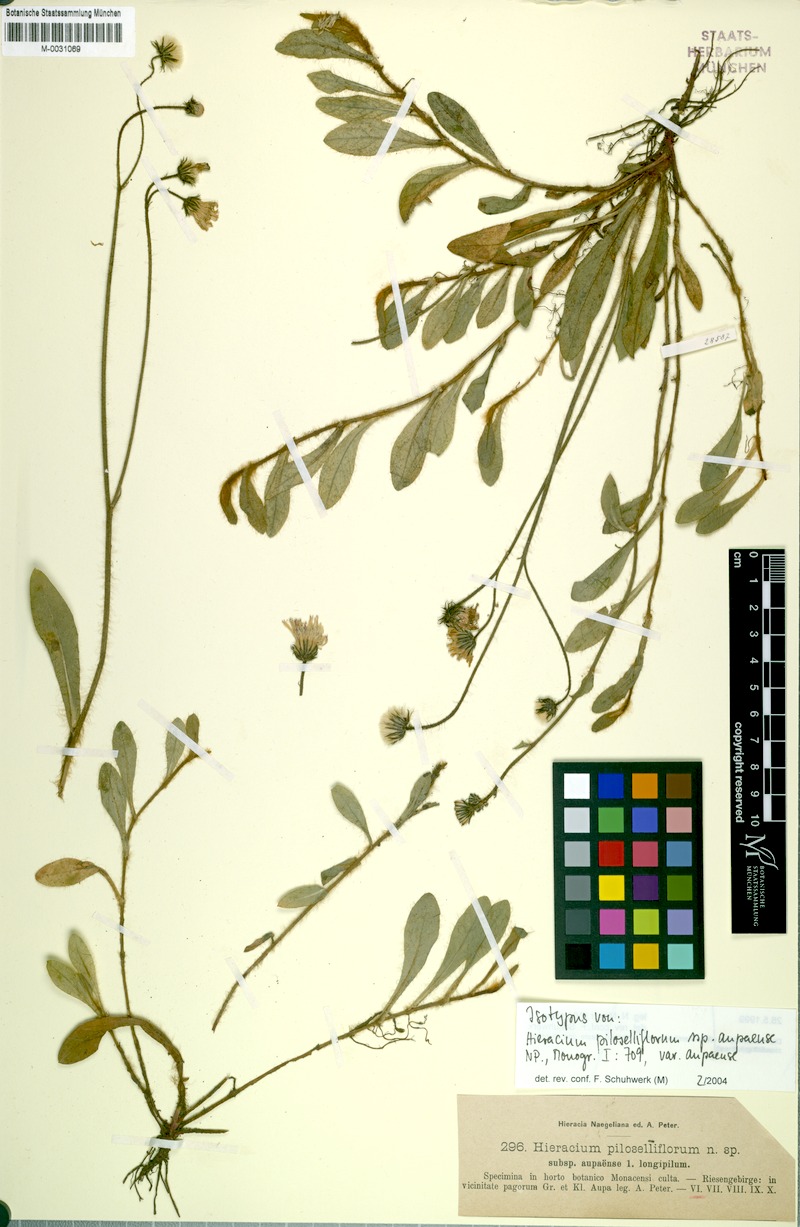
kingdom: Plantae
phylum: Tracheophyta
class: Magnoliopsida
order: Asterales
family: Asteraceae
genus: Pilosella
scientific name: Pilosella piloselliflora
